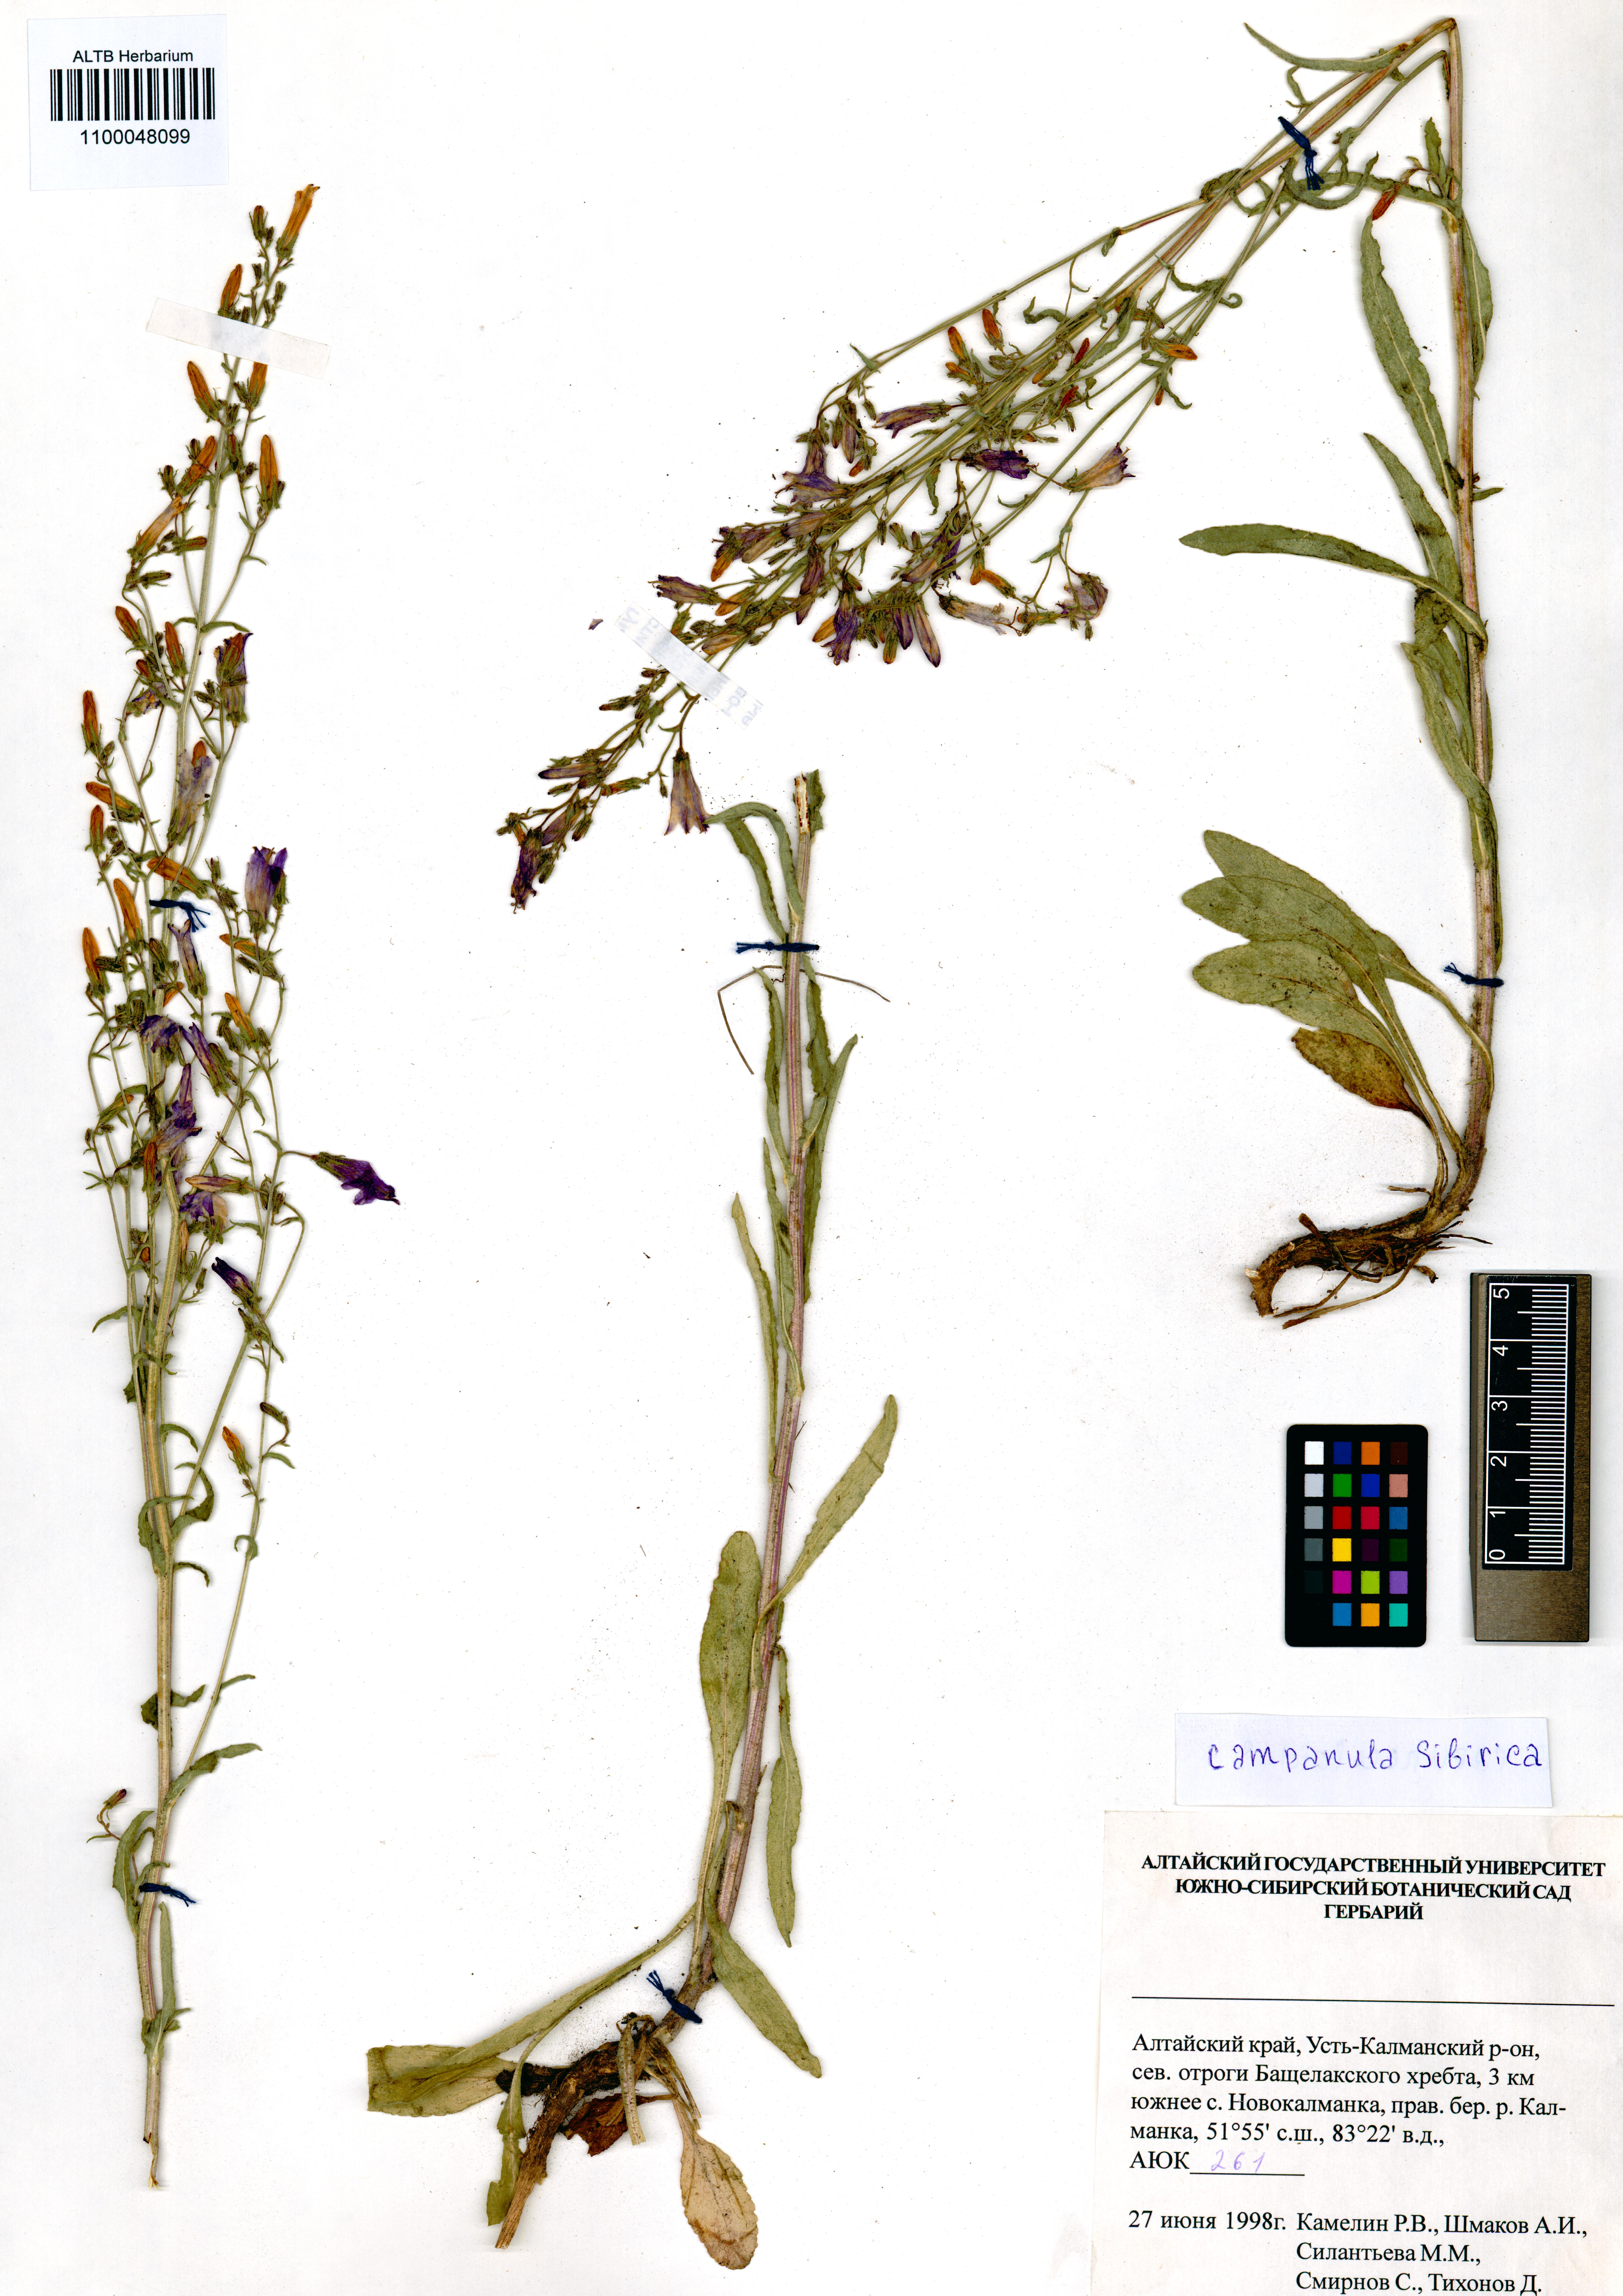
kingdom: Plantae
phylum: Tracheophyta
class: Magnoliopsida
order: Asterales
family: Campanulaceae
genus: Campanula
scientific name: Campanula sibirica
